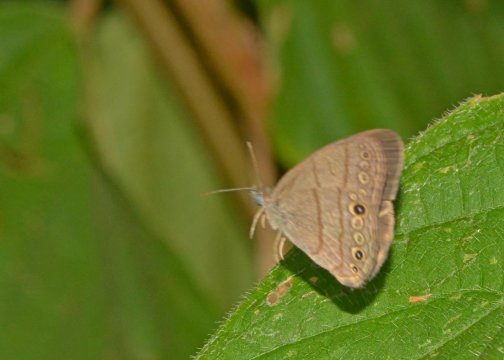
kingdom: Animalia
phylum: Arthropoda
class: Insecta
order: Lepidoptera
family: Nymphalidae
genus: Hermeuptychia
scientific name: Hermeuptychia hermes
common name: Hermes Satyr
